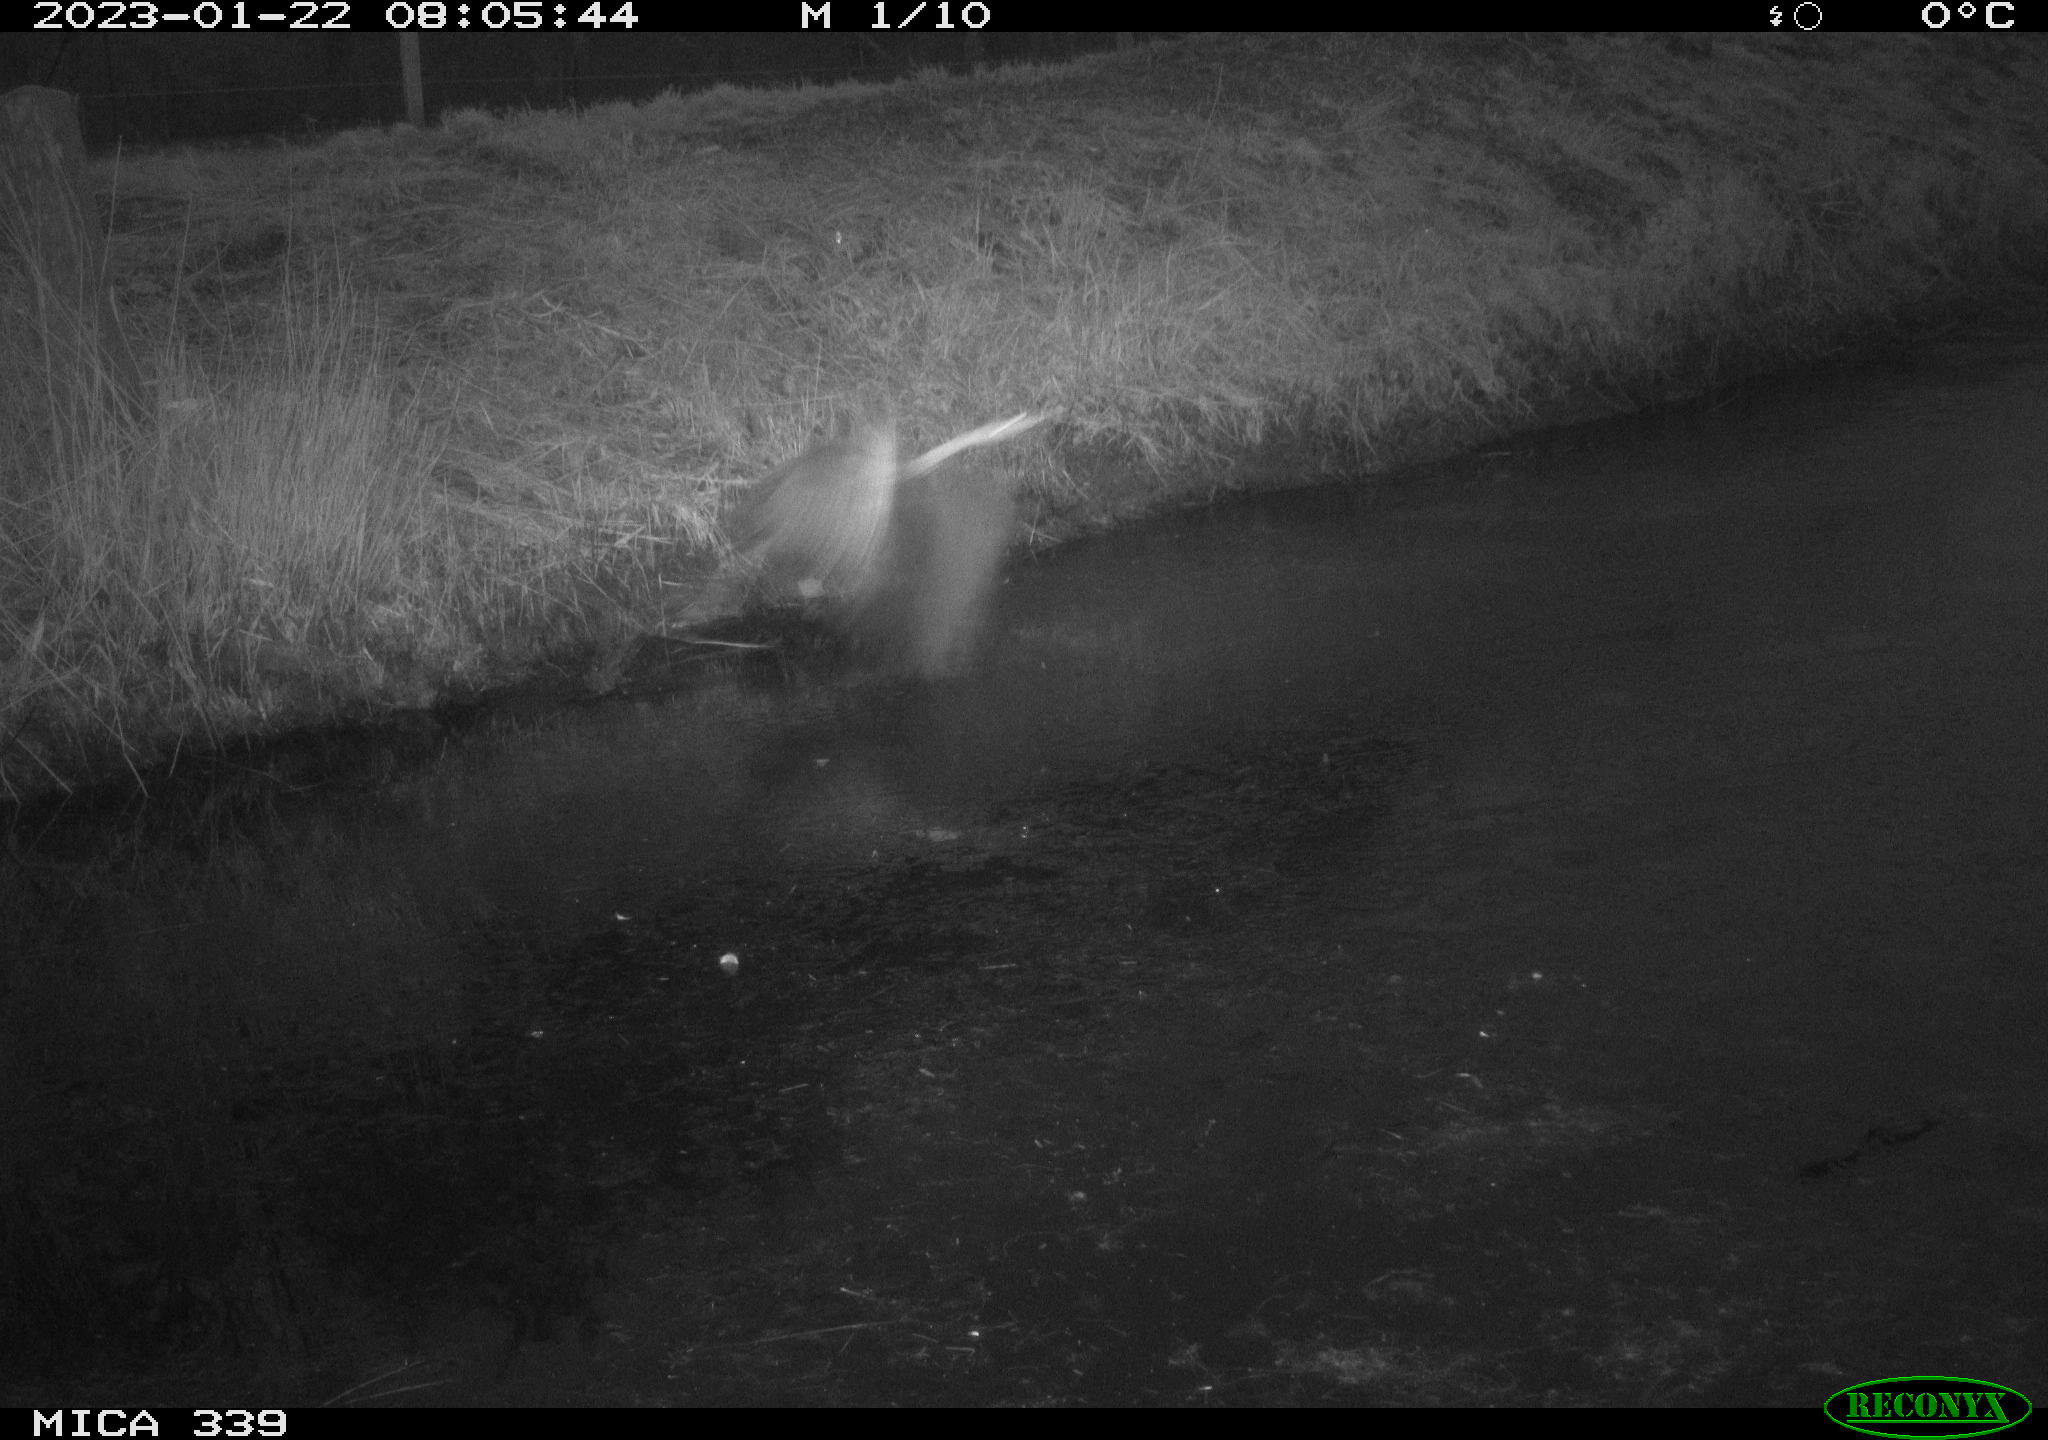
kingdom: Animalia
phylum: Chordata
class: Aves
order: Pelecaniformes
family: Ardeidae
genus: Ardea
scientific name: Ardea cinerea
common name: Grey heron
